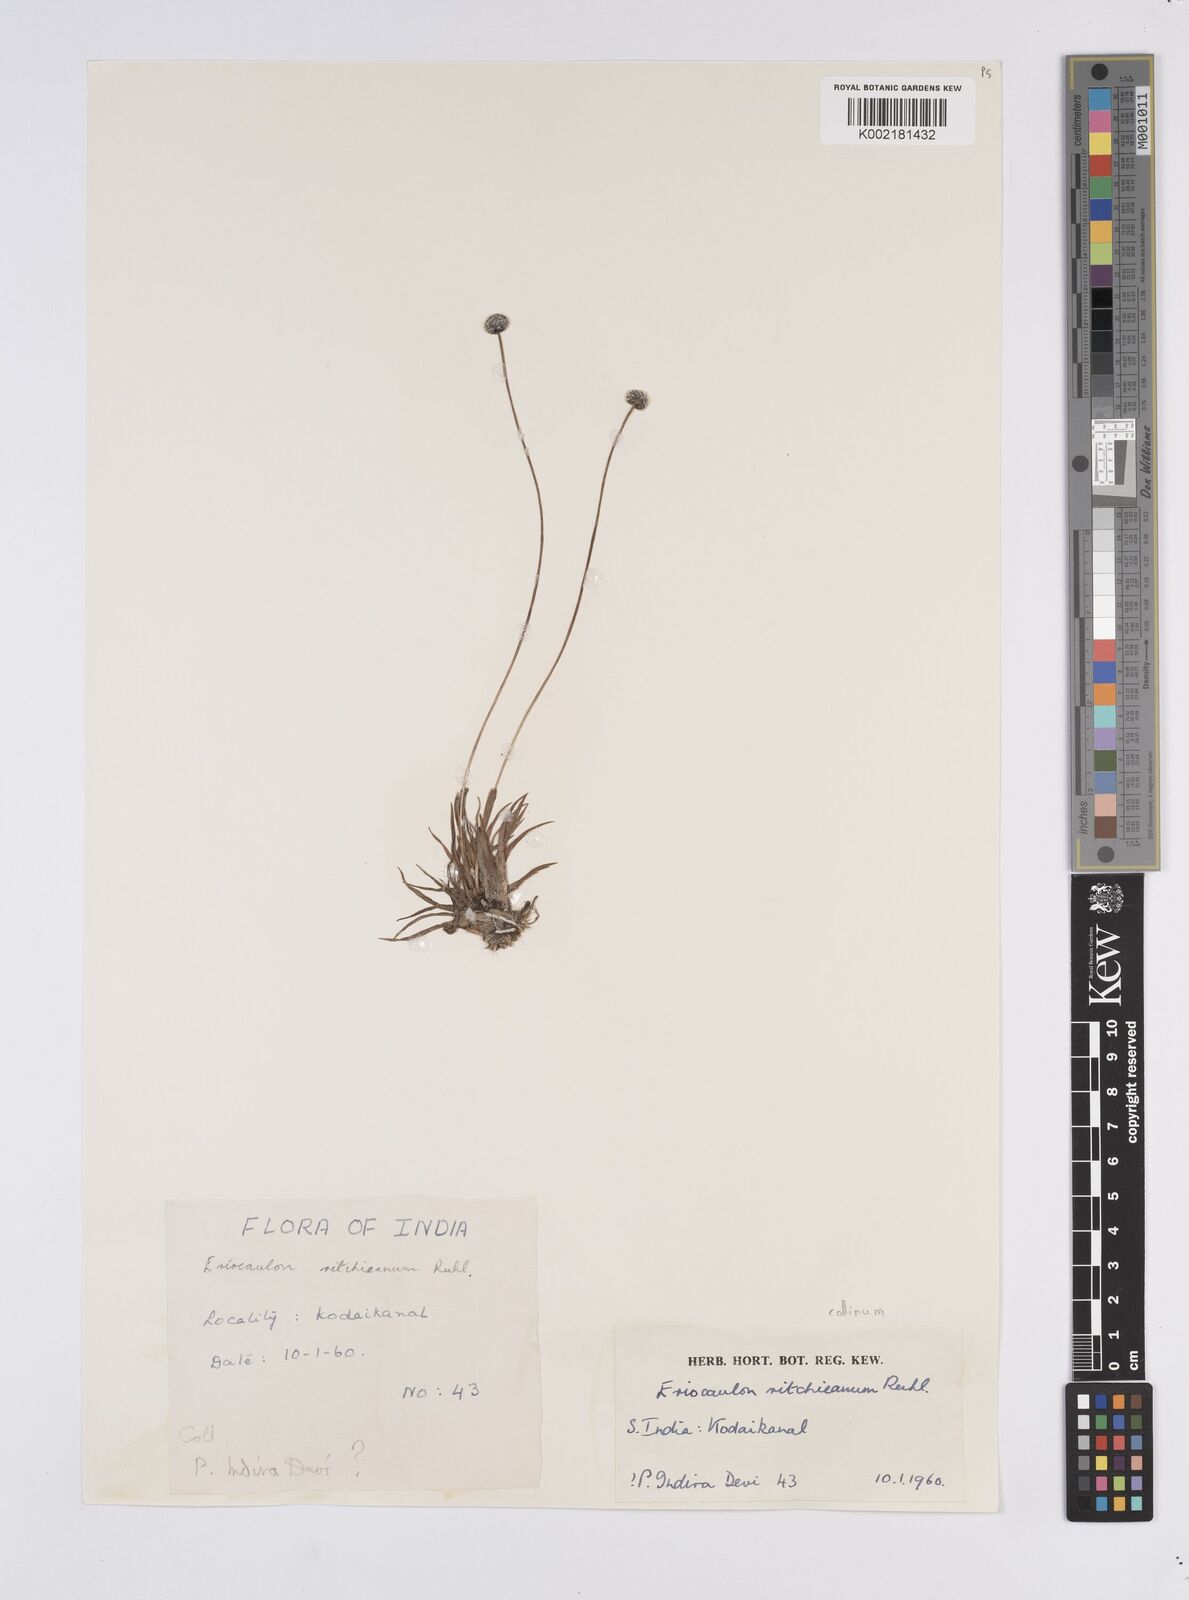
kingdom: Plantae
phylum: Tracheophyta
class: Liliopsida
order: Poales
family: Eriocaulaceae
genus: Eriocaulon
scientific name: Eriocaulon odoratum
